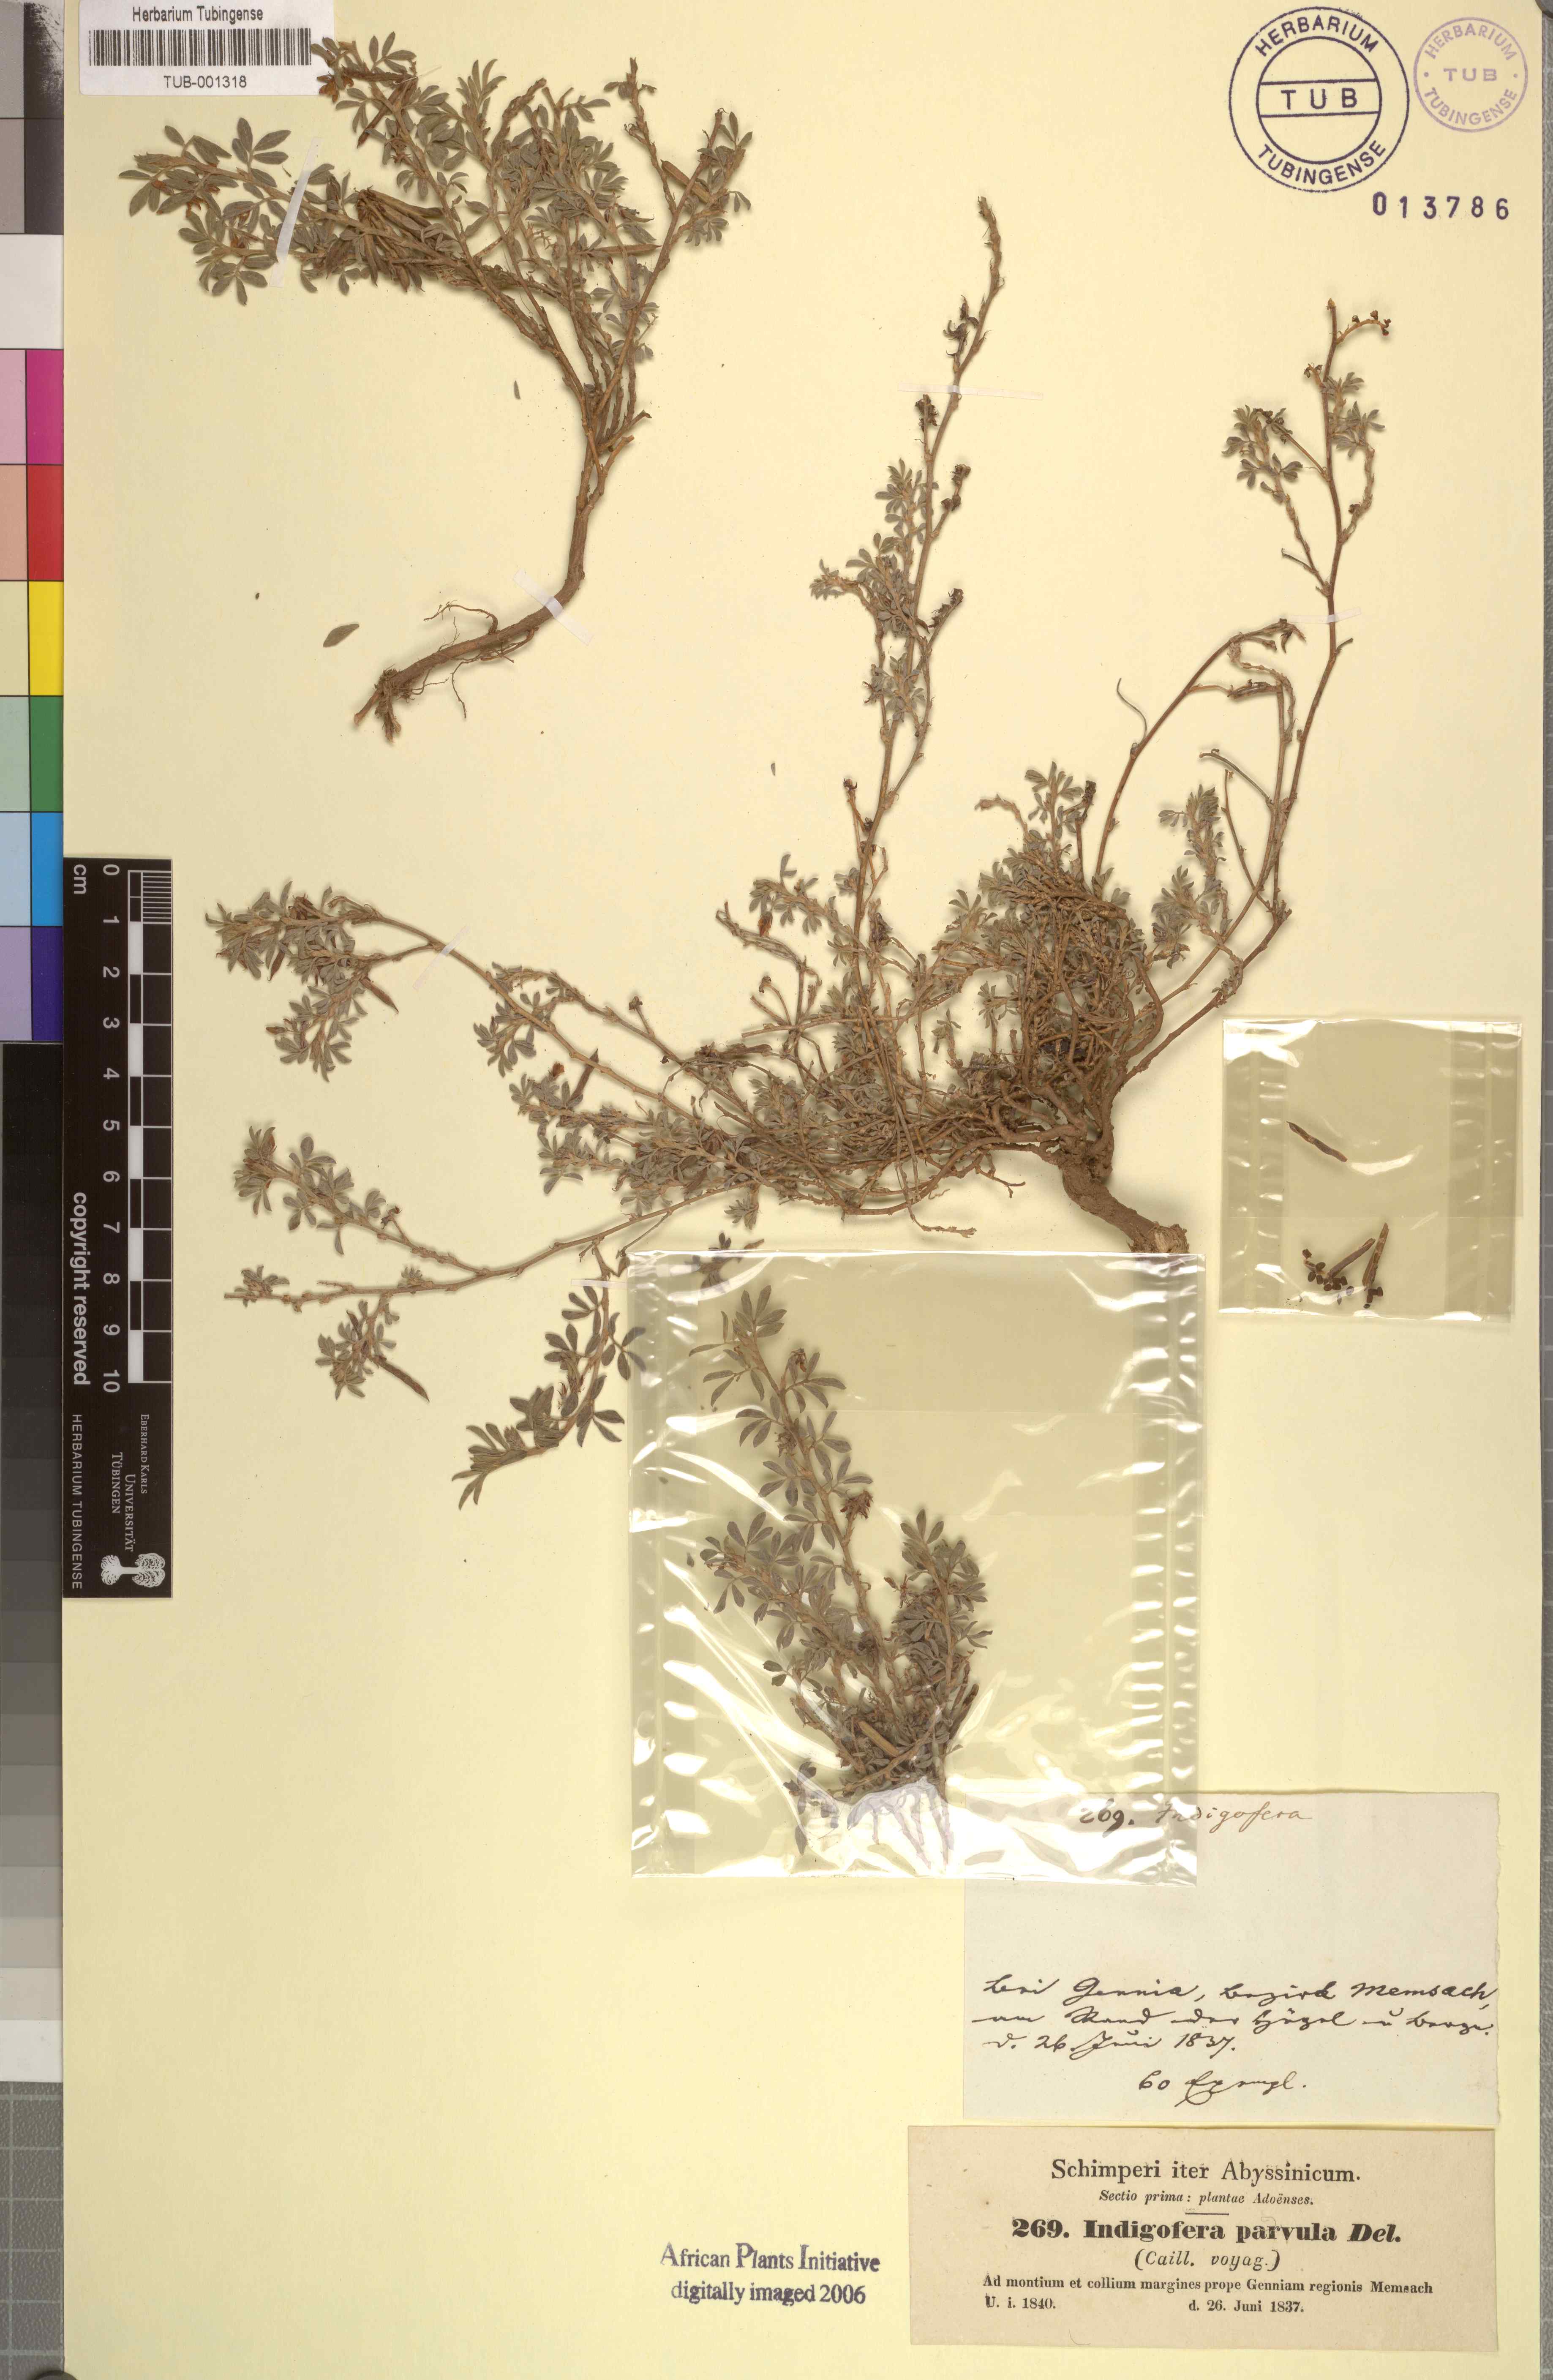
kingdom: Plantae
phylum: Tracheophyta
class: Magnoliopsida
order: Fabales
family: Fabaceae
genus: Indigofera
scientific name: Indigofera spicata
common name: Creeping indigo
